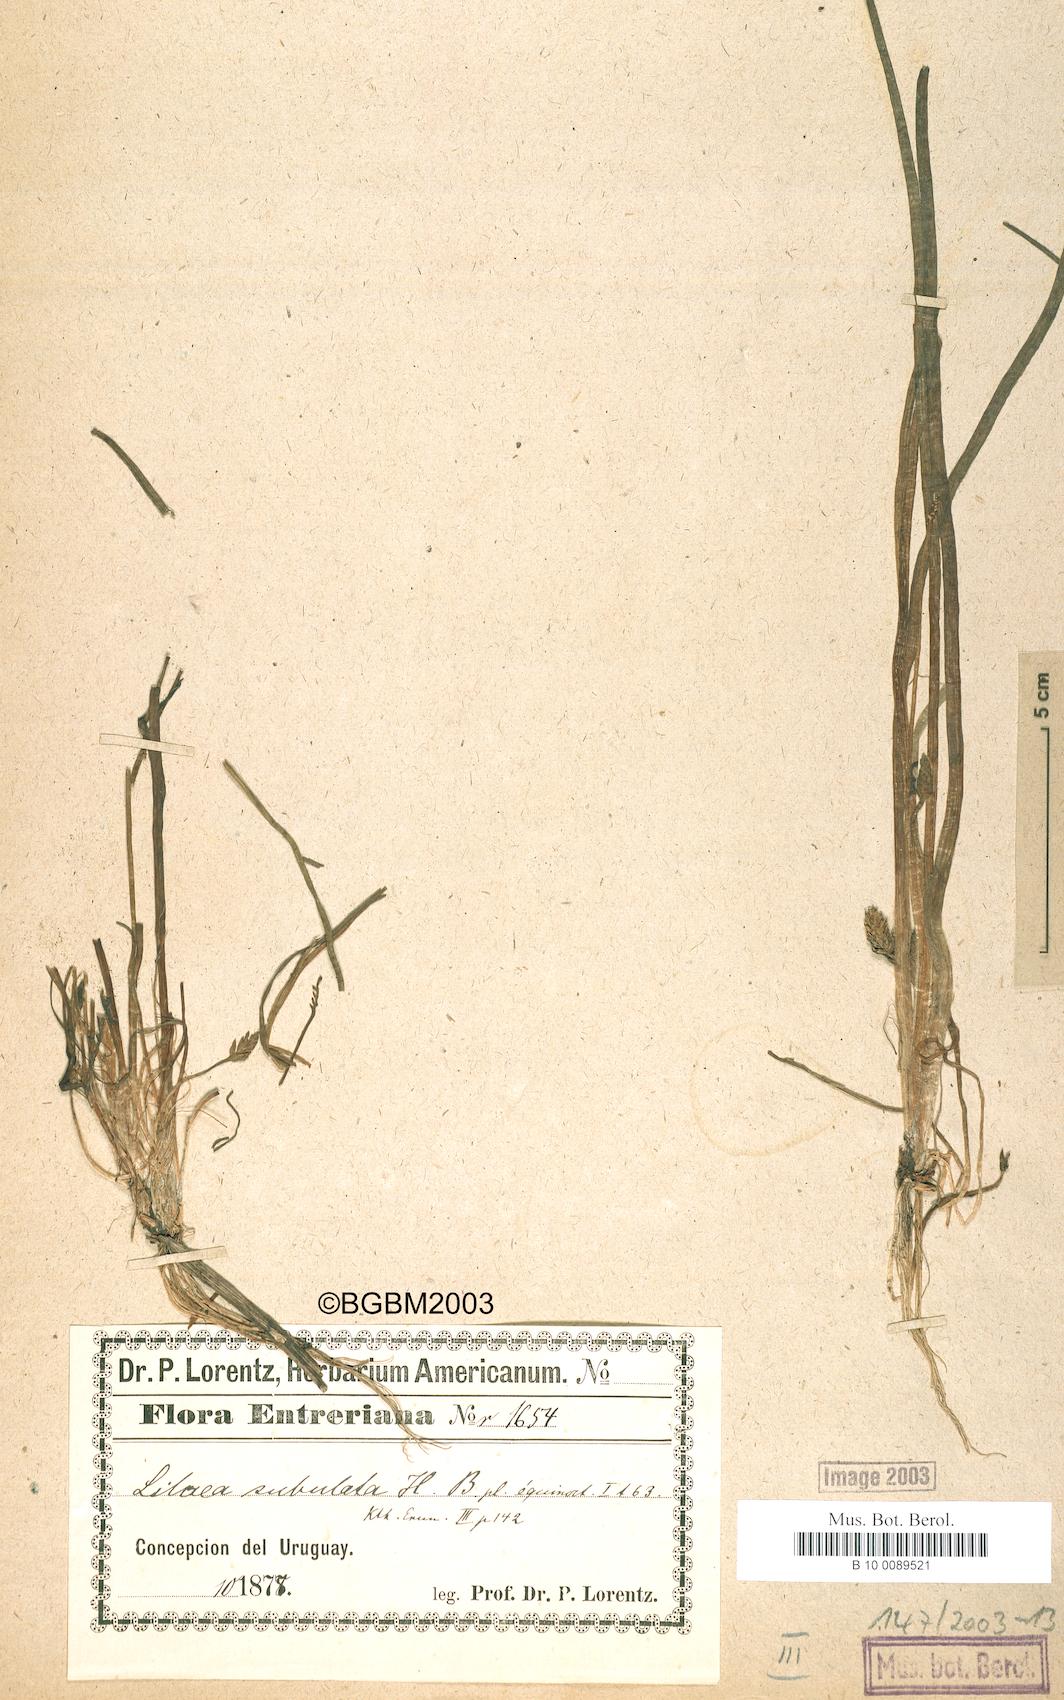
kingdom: Plantae
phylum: Tracheophyta
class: Liliopsida
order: Alismatales
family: Juncaginaceae
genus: Triglochin
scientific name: Triglochin scilloides
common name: Awl-leaved lilaea
